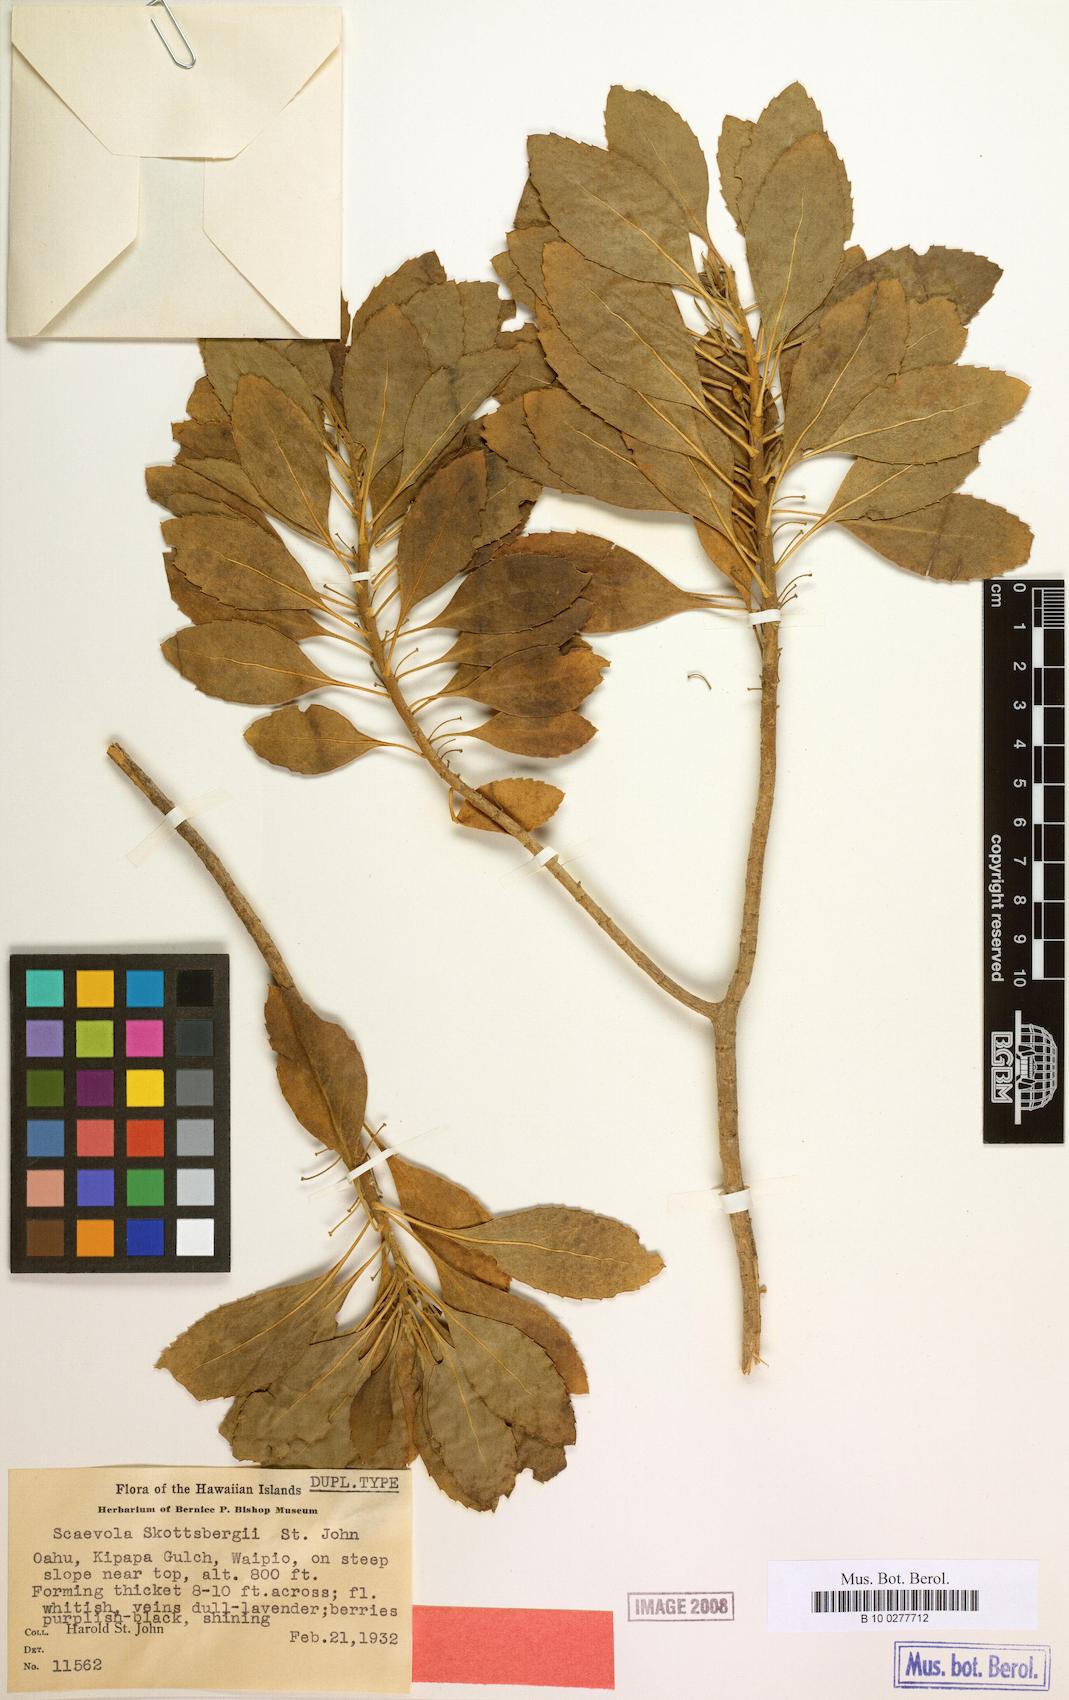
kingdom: Plantae
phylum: Tracheophyta
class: Magnoliopsida
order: Asterales
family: Goodeniaceae
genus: Scaevola
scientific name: Scaevola gaudichaudiana
